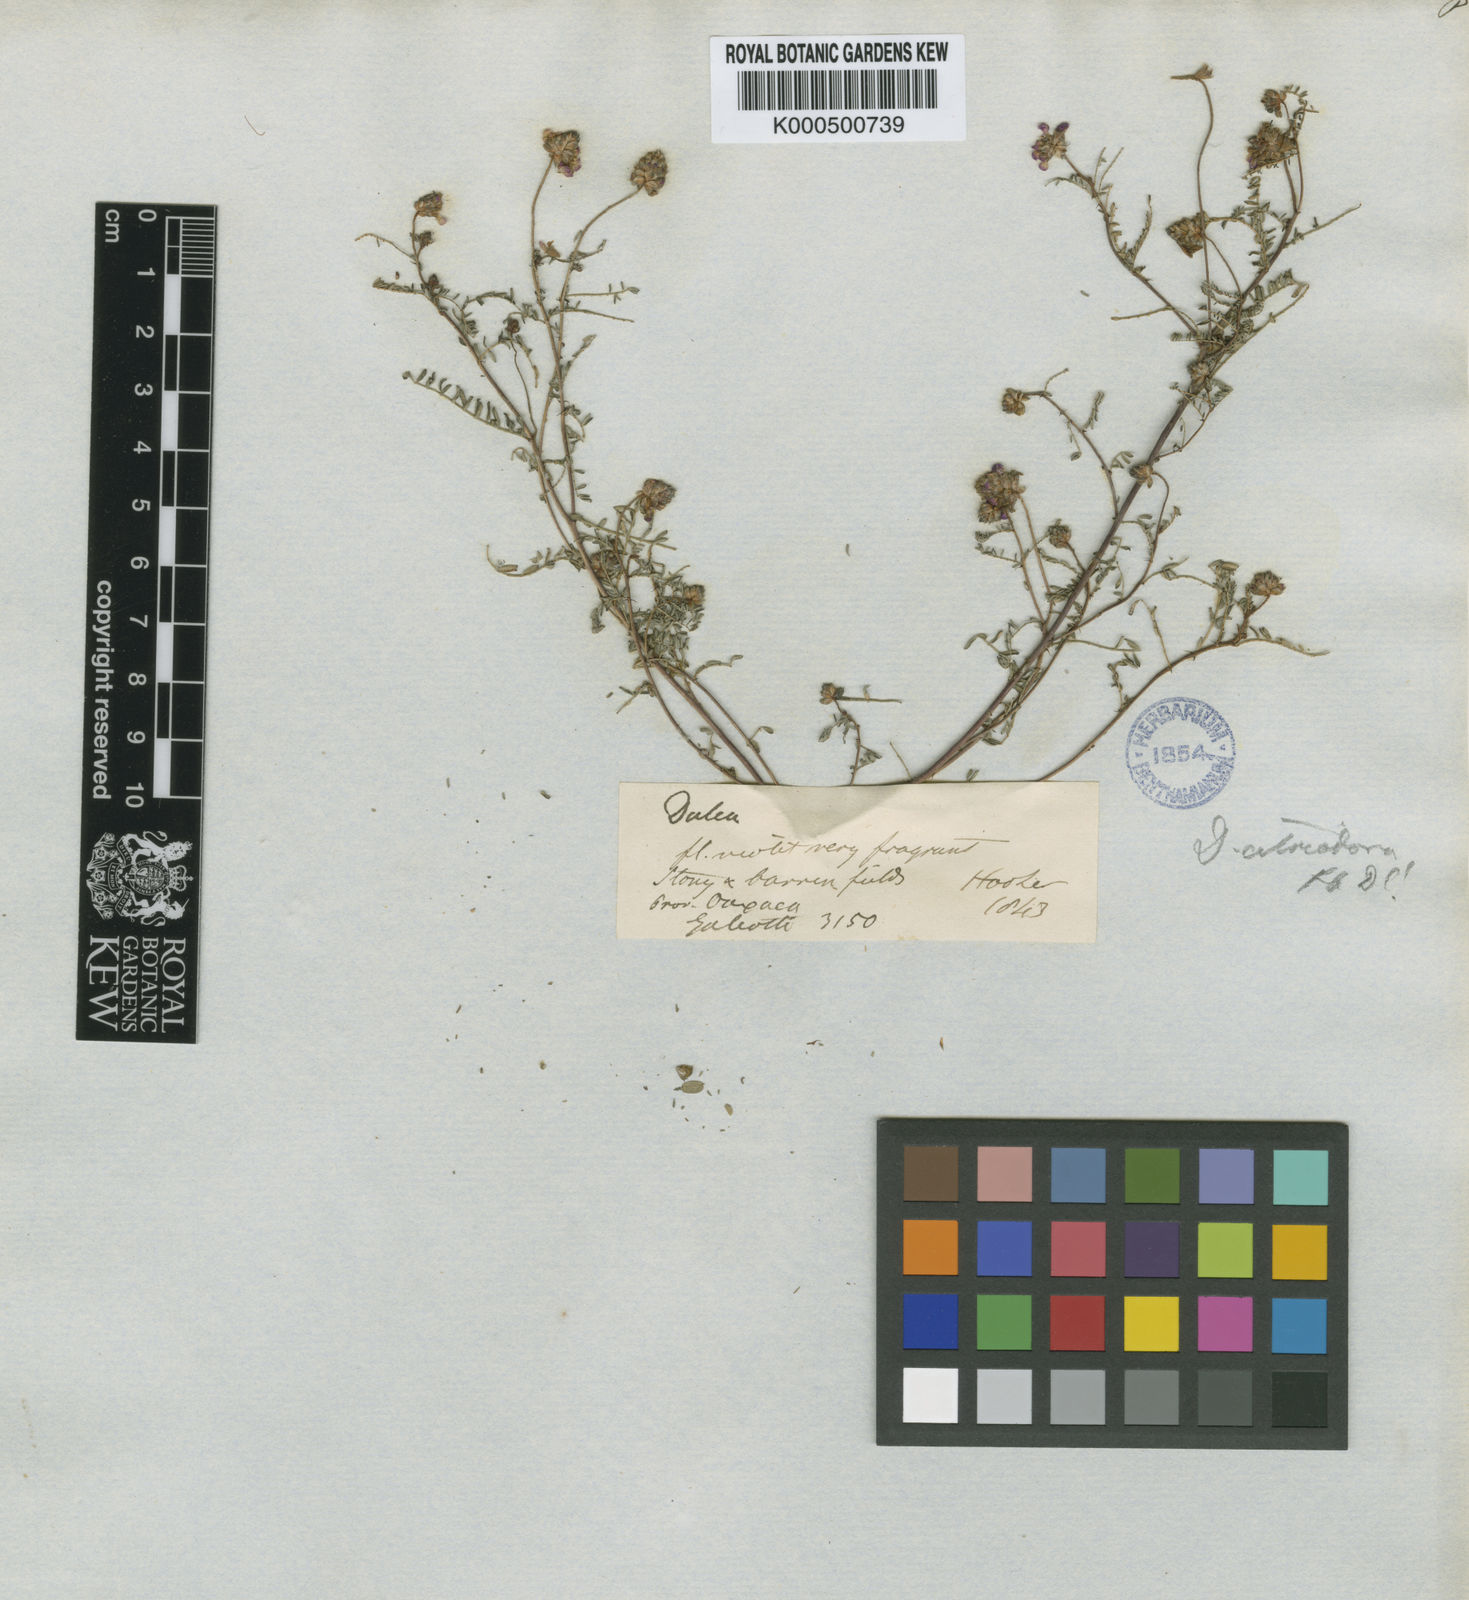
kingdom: Plantae
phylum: Tracheophyta
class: Magnoliopsida
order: Fabales
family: Fabaceae
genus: Dalea
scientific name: Dalea foliolosa
